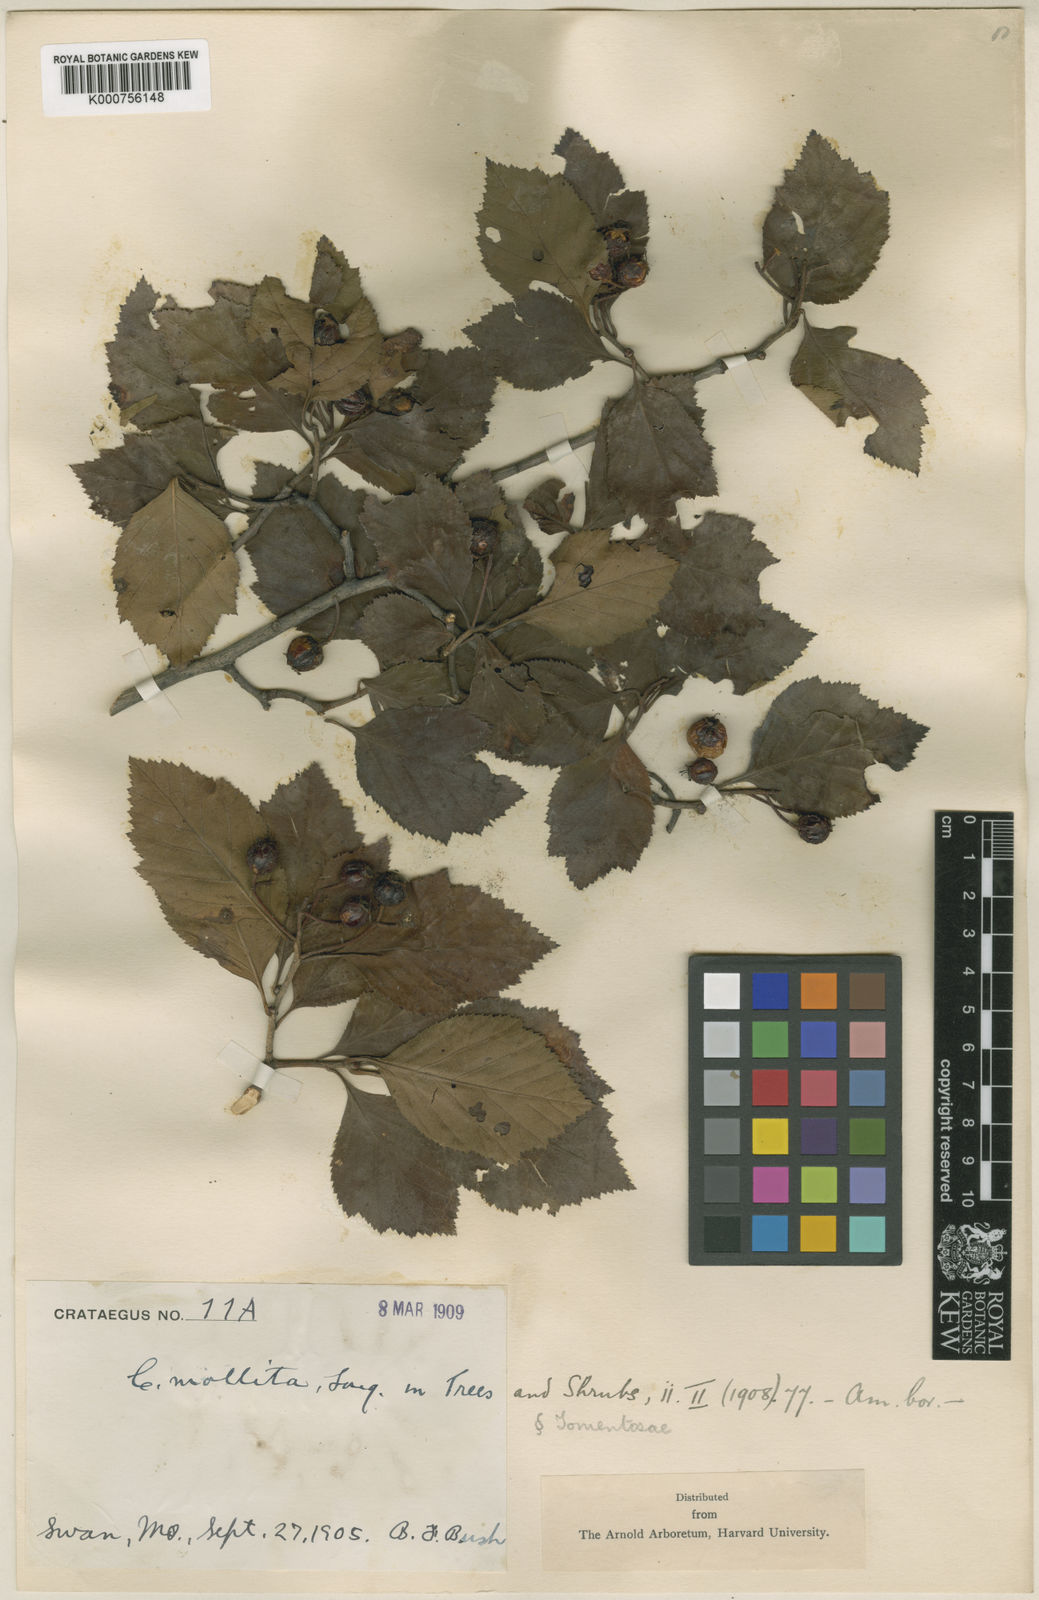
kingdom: Plantae
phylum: Tracheophyta
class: Magnoliopsida
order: Rosales
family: Rosaceae
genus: Crataegus
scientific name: Crataegus
